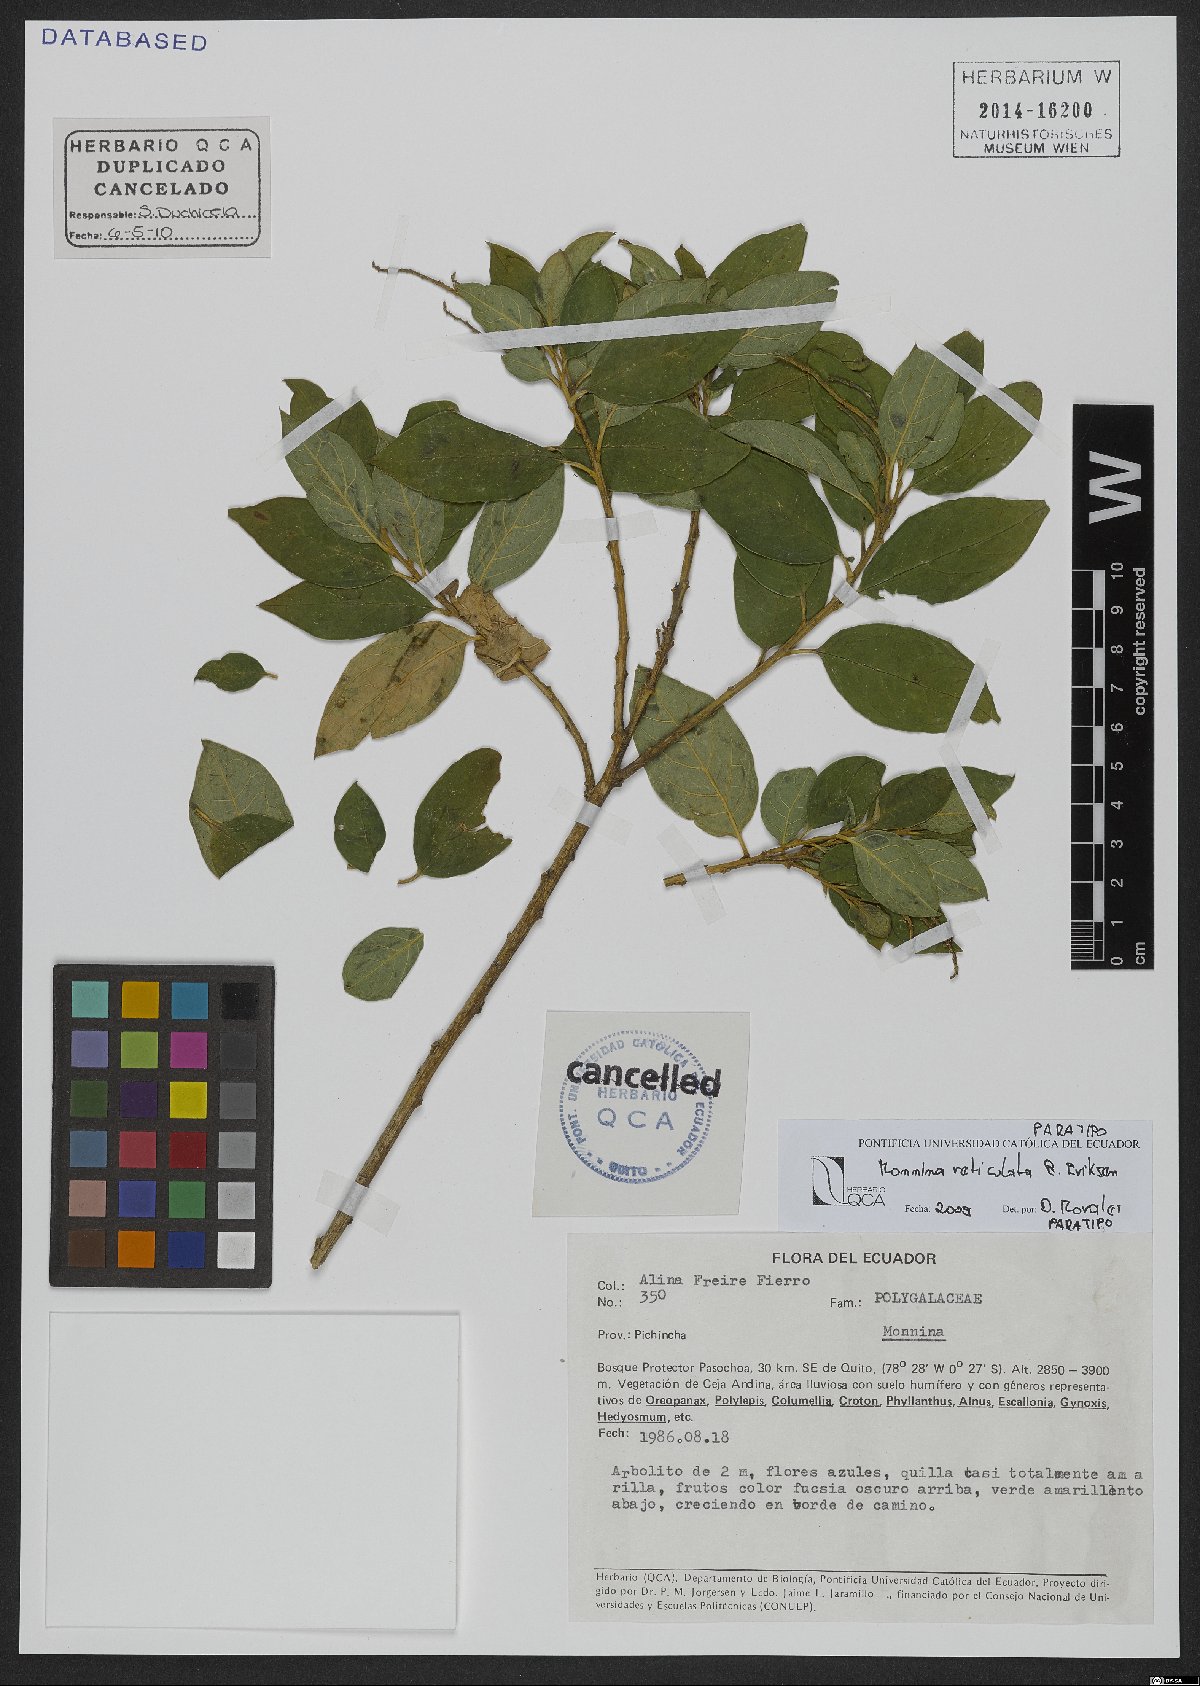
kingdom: Plantae
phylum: Tracheophyta
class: Magnoliopsida
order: Fabales
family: Polygalaceae
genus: Monnina
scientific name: Monnina reticulata
